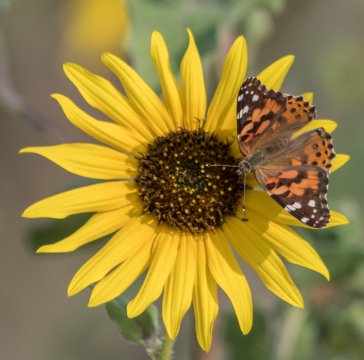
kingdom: Animalia
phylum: Arthropoda
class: Insecta
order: Lepidoptera
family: Nymphalidae
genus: Vanessa
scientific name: Vanessa cardui
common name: Painted Lady
